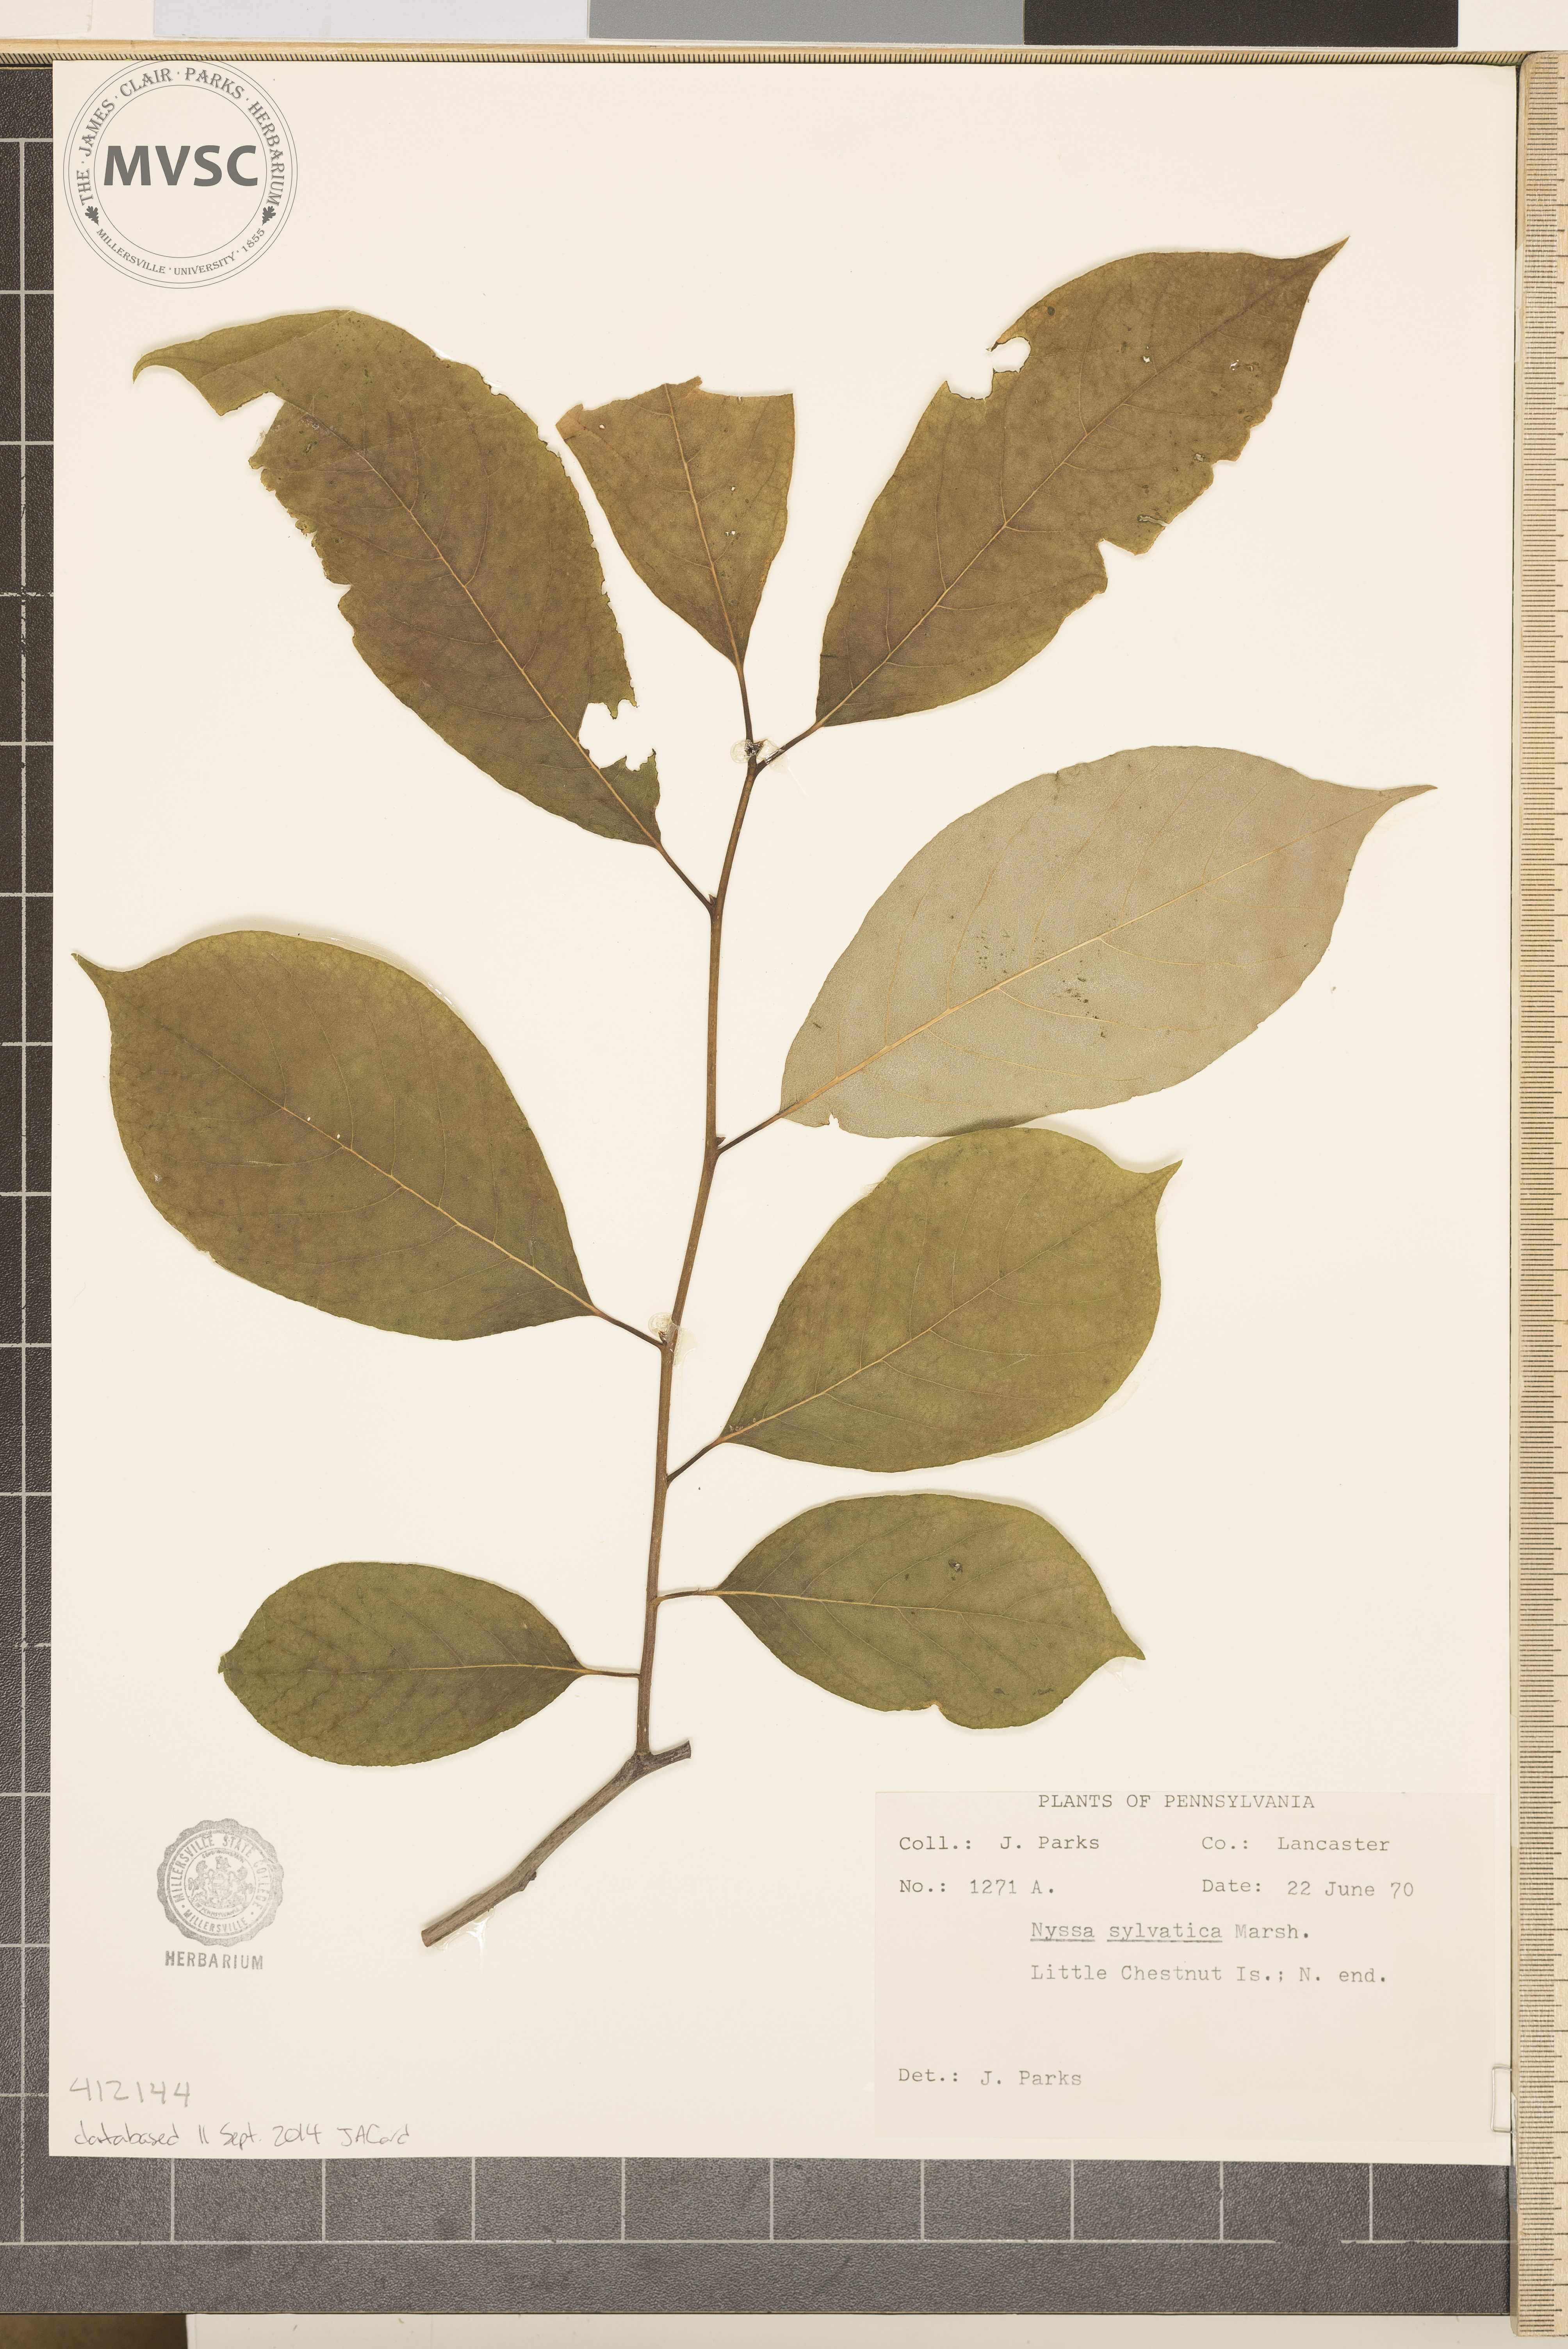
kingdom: Plantae
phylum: Tracheophyta
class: Magnoliopsida
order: Cornales
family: Nyssaceae
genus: Nyssa
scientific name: Nyssa sylvatica
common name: Black tupelo
